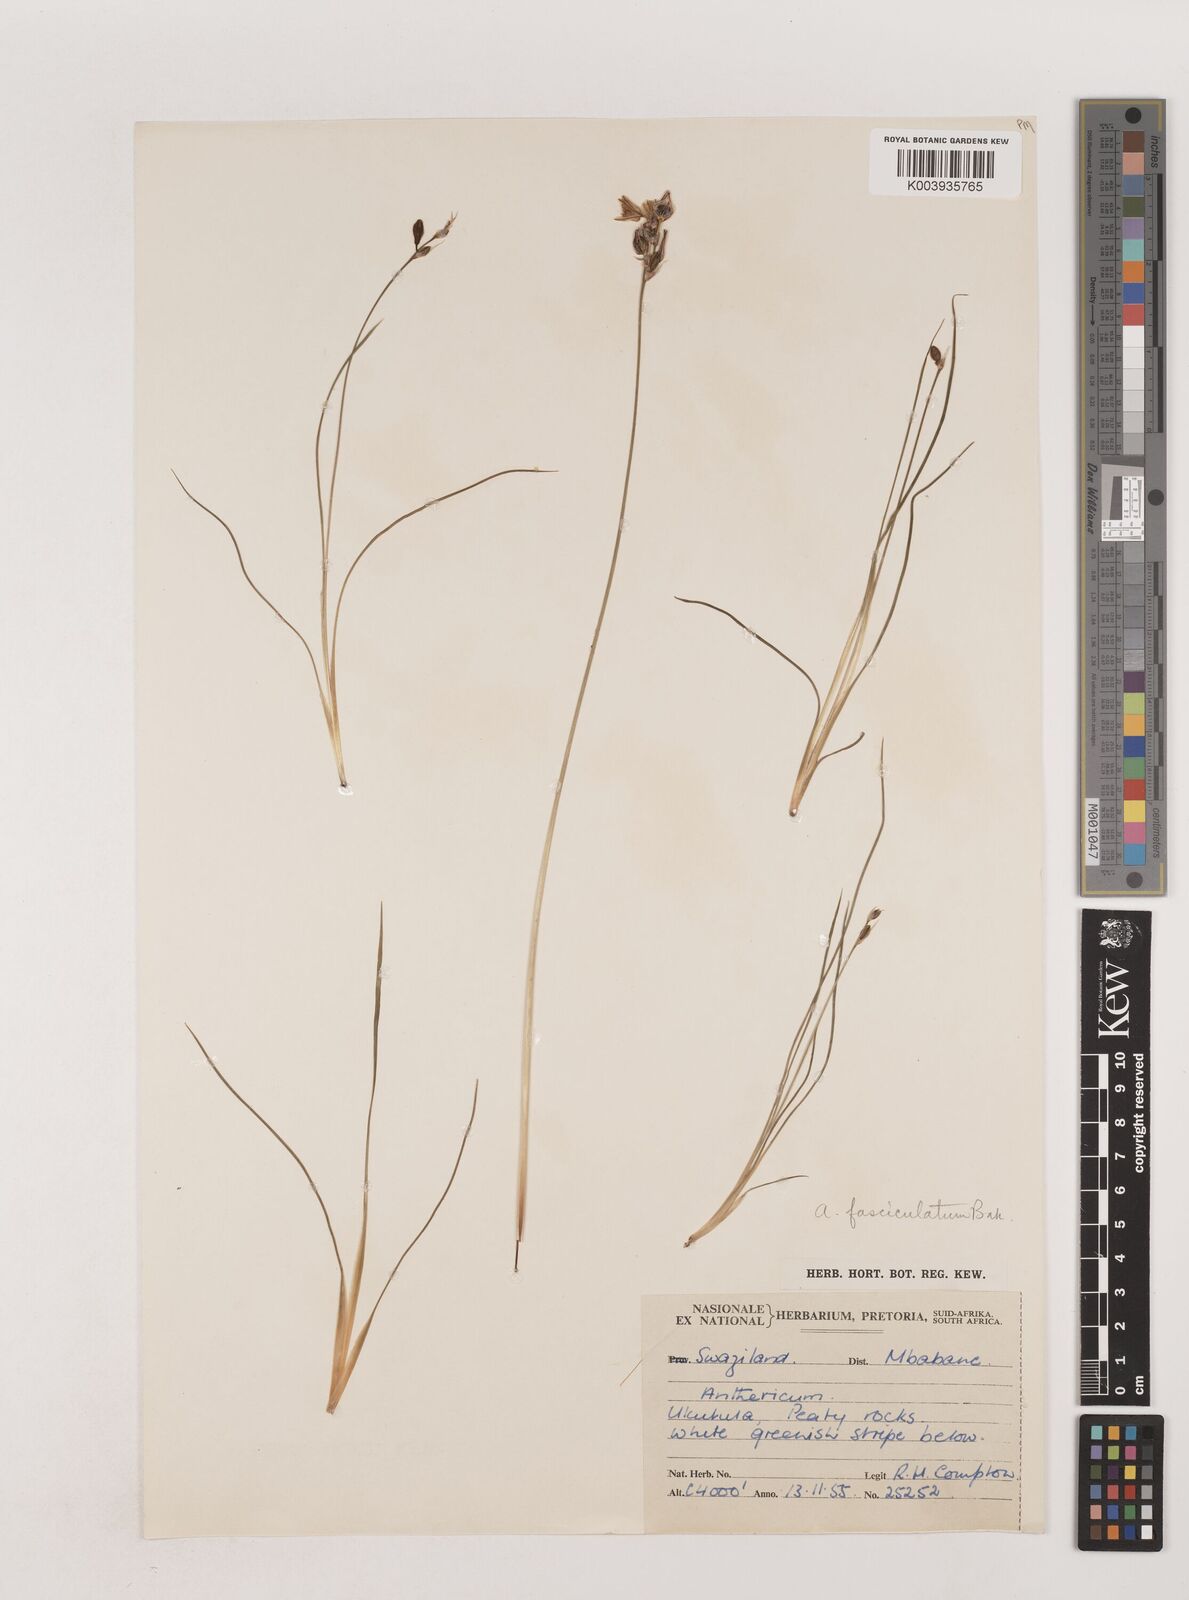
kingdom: Plantae
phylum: Tracheophyta
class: Liliopsida
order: Asparagales
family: Asparagaceae
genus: Chlorophytum
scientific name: Chlorophytum fasciculatum
